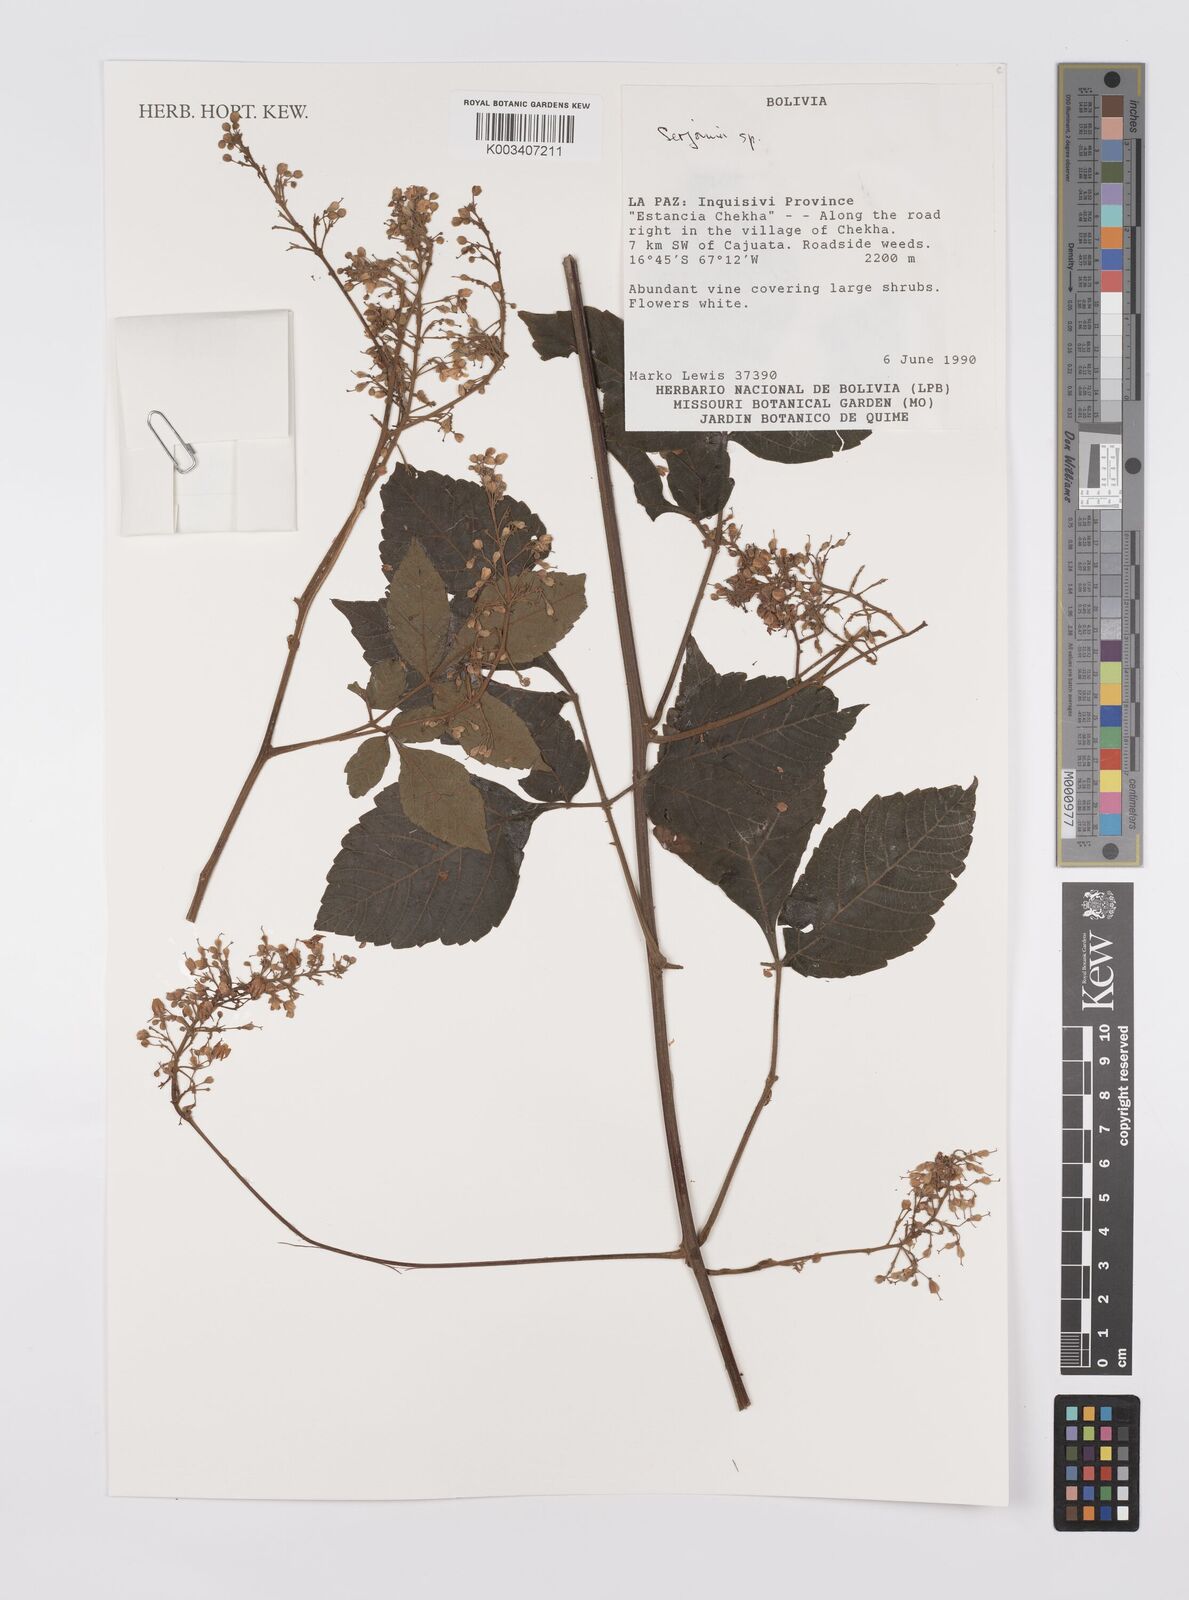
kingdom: Plantae
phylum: Tracheophyta
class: Magnoliopsida
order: Sapindales
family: Sapindaceae
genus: Serjania
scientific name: Serjania
